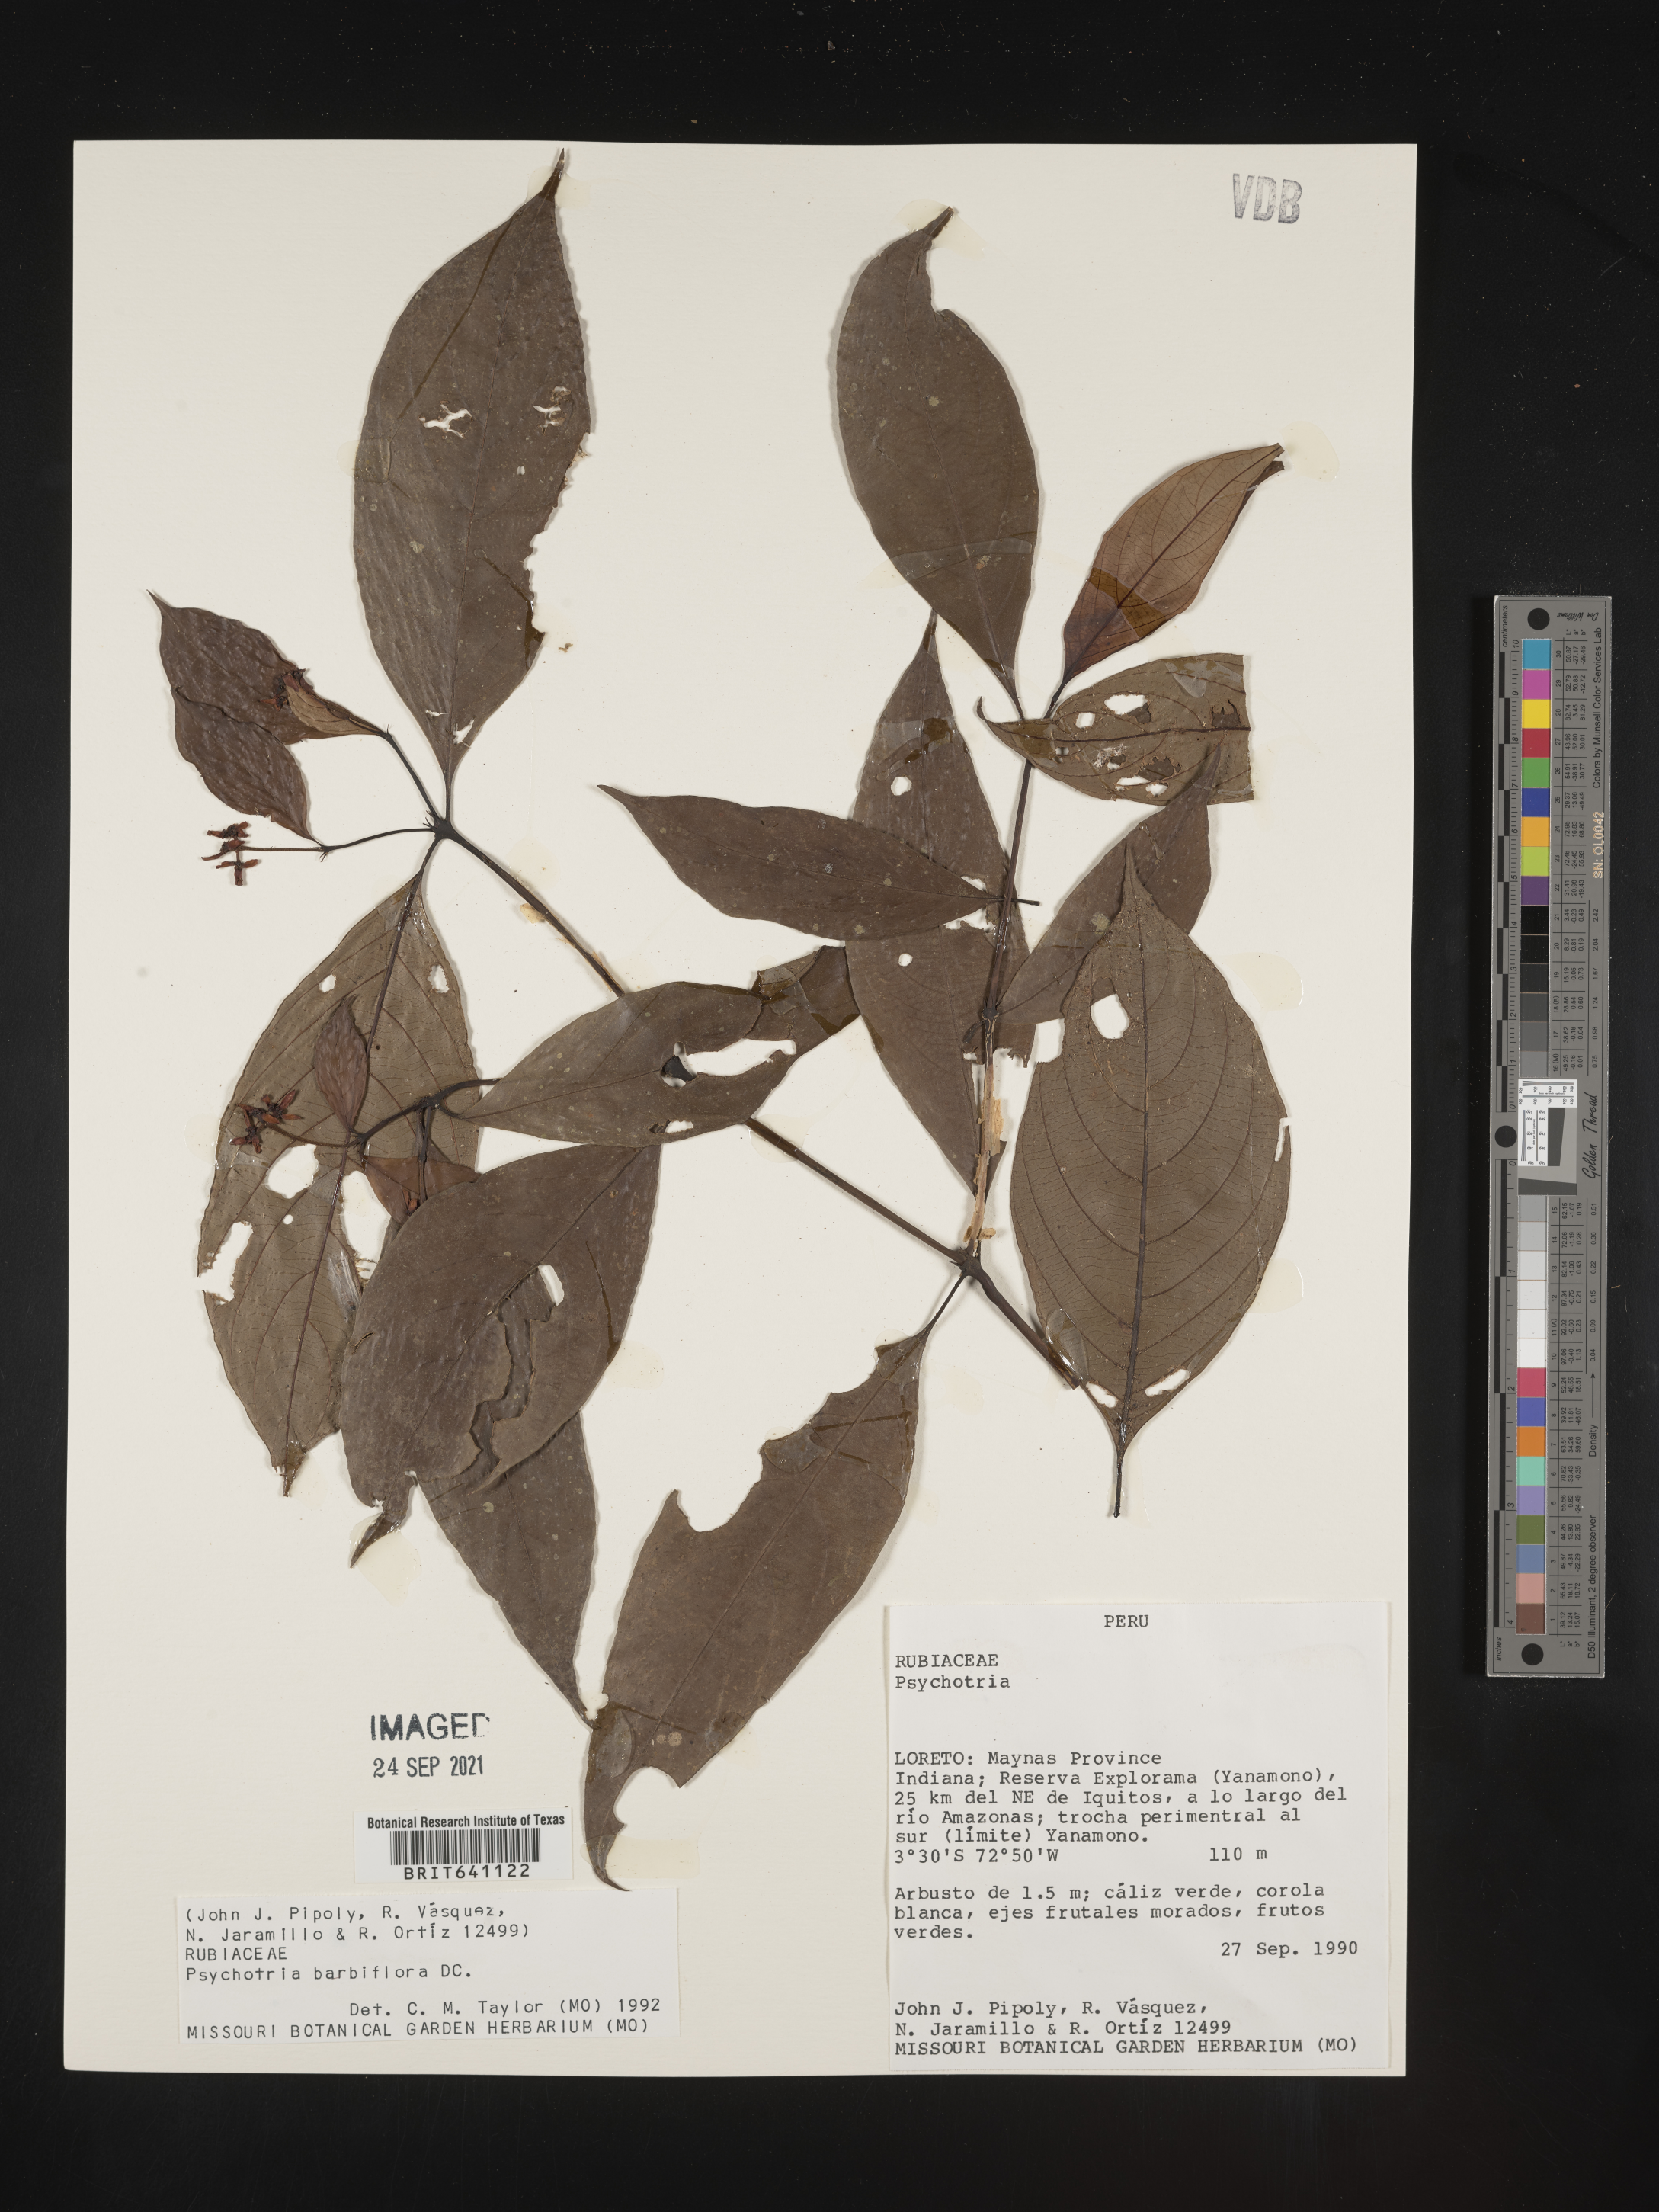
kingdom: Plantae
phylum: Tracheophyta
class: Magnoliopsida
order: Gentianales
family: Rubiaceae
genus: Psychotria
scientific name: Psychotria
